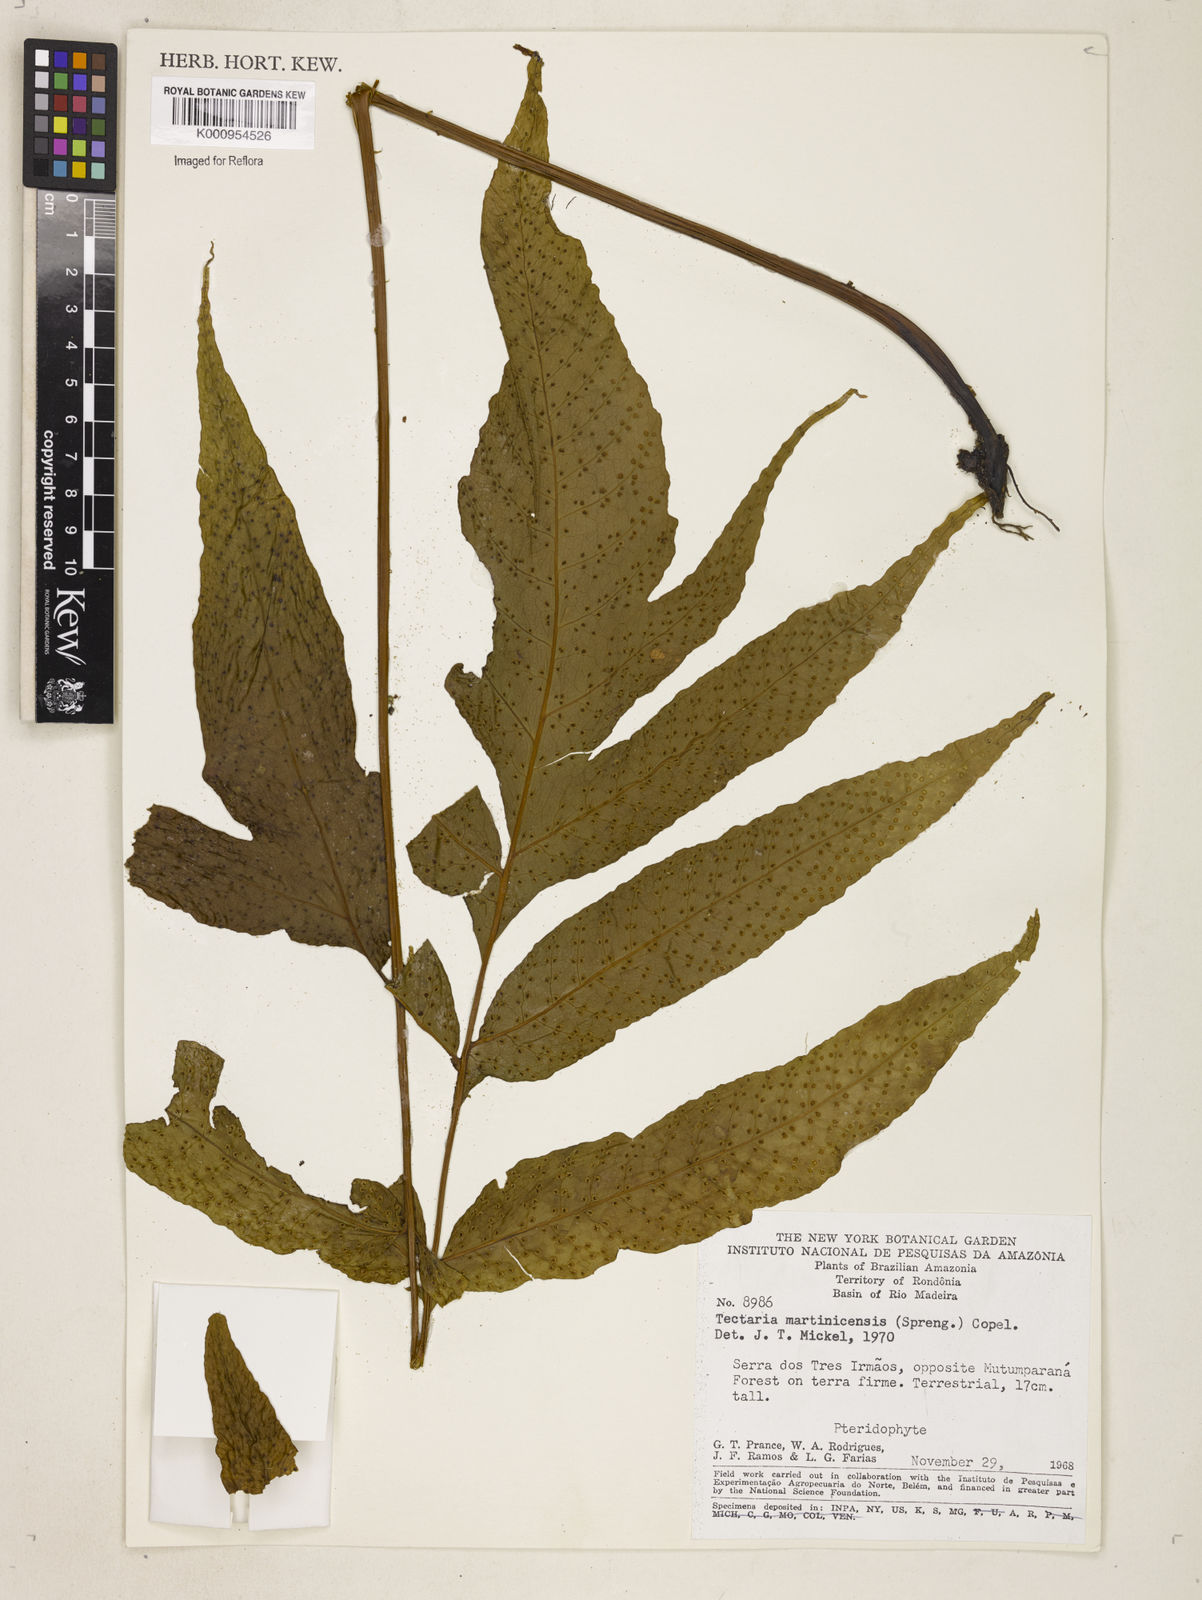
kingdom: Plantae
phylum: Tracheophyta
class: Polypodiopsida
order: Polypodiales
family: Tectariaceae
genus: Tectaria
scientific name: Tectaria incisa
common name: Incised halberd fern
